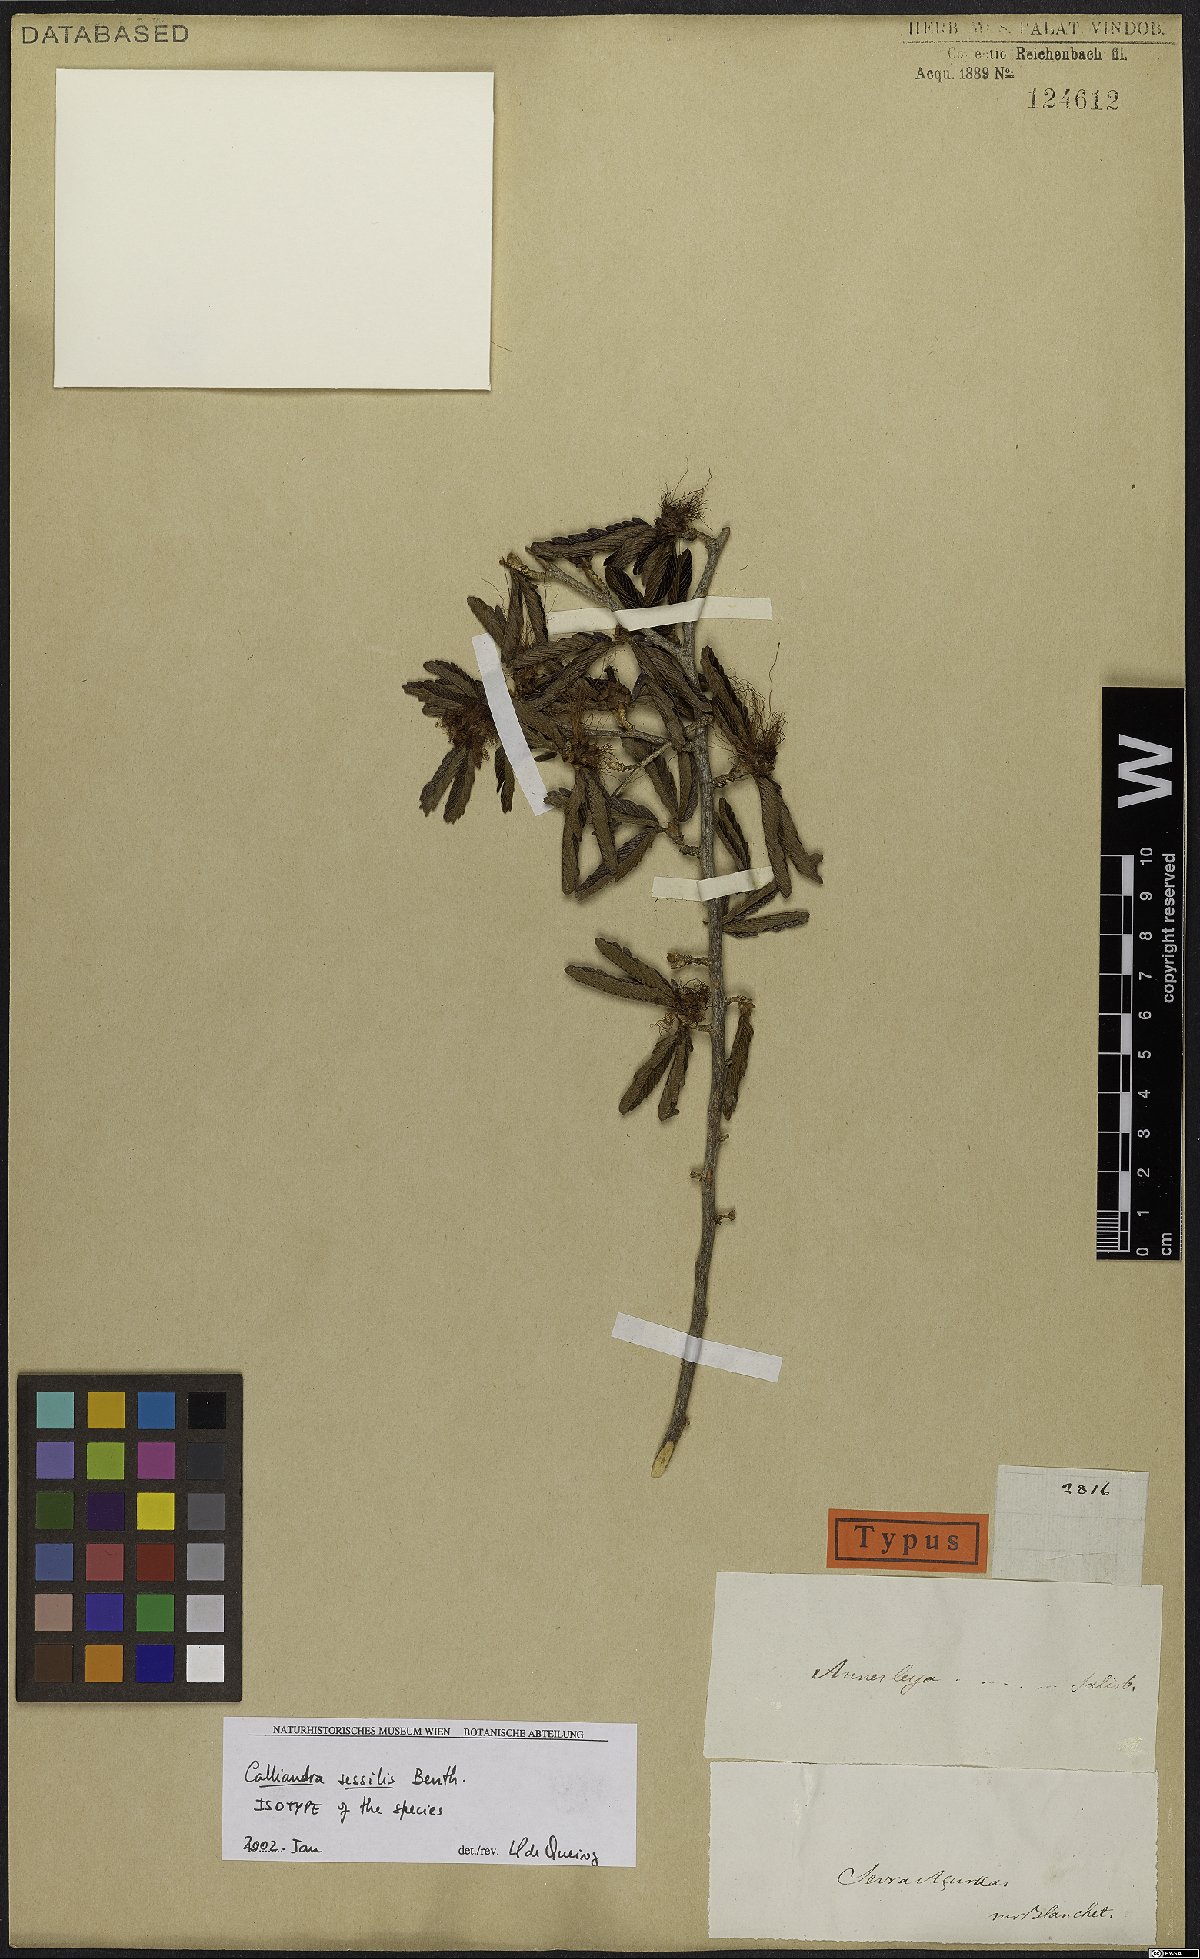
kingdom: Plantae
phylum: Tracheophyta
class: Magnoliopsida
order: Fabales
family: Fabaceae
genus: Calliandra
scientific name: Calliandra sessilis
